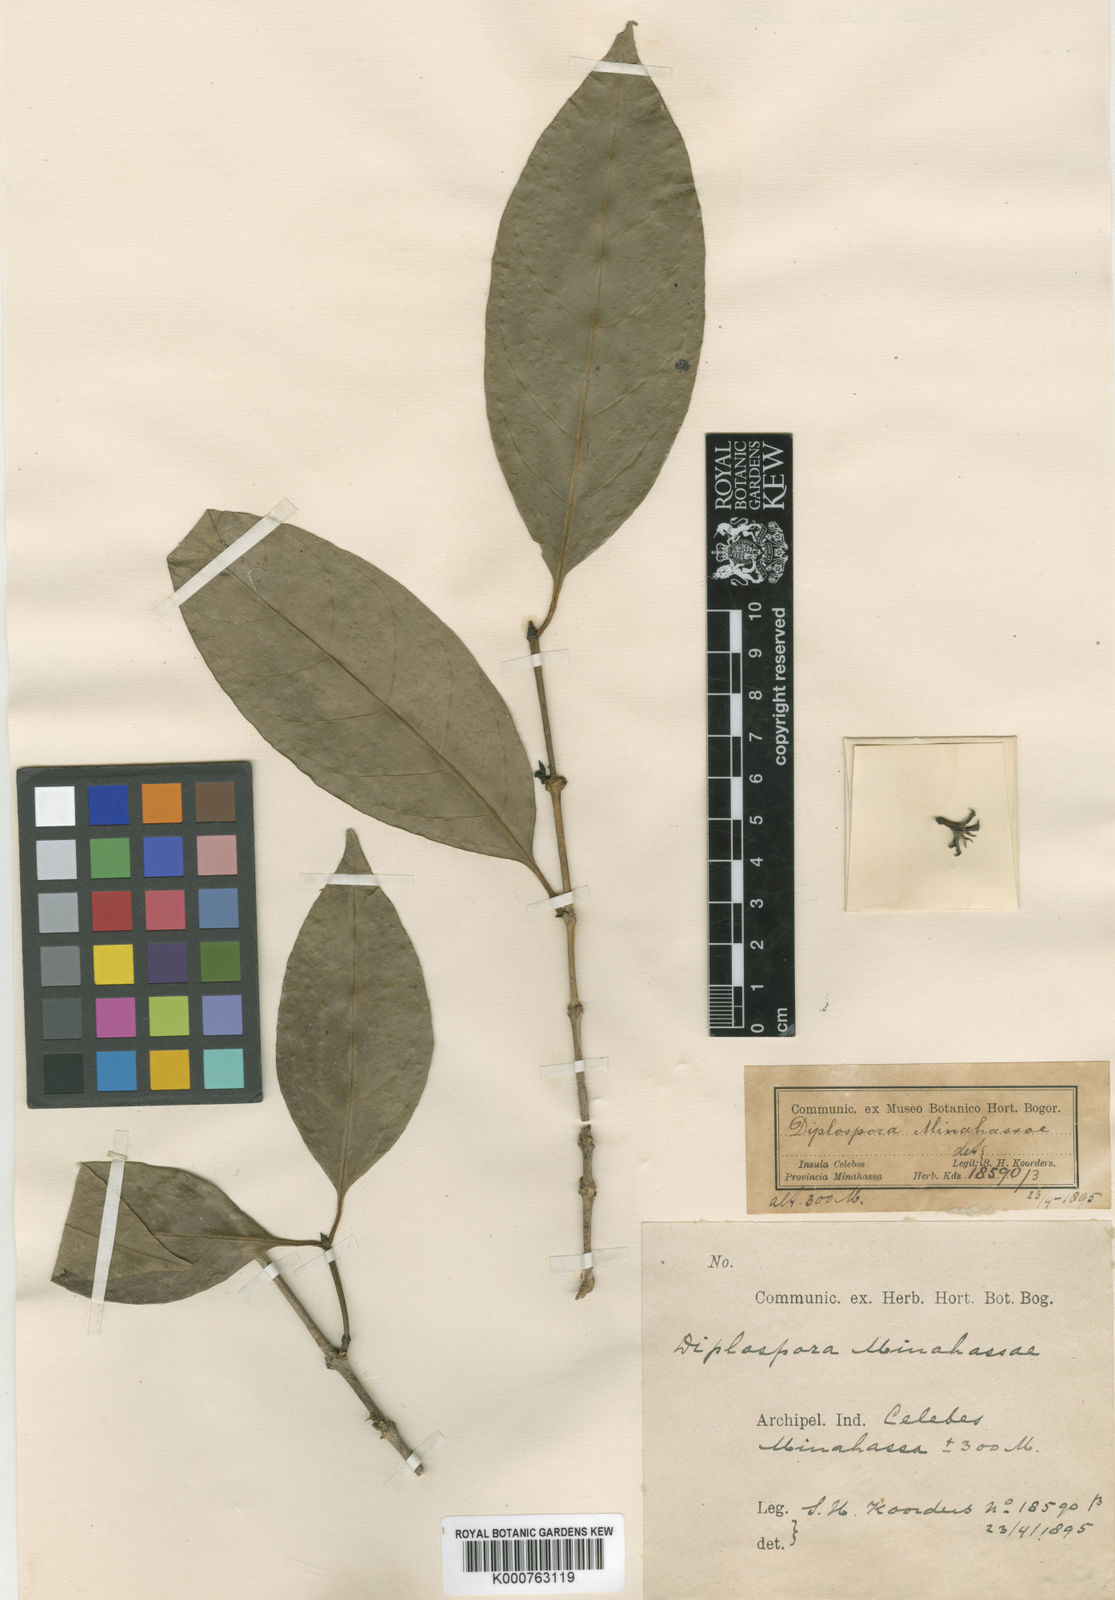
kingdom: Plantae
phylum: Tracheophyta
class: Magnoliopsida
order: Gentianales
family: Rubiaceae
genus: Diplospora
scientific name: Diplospora minahassae
